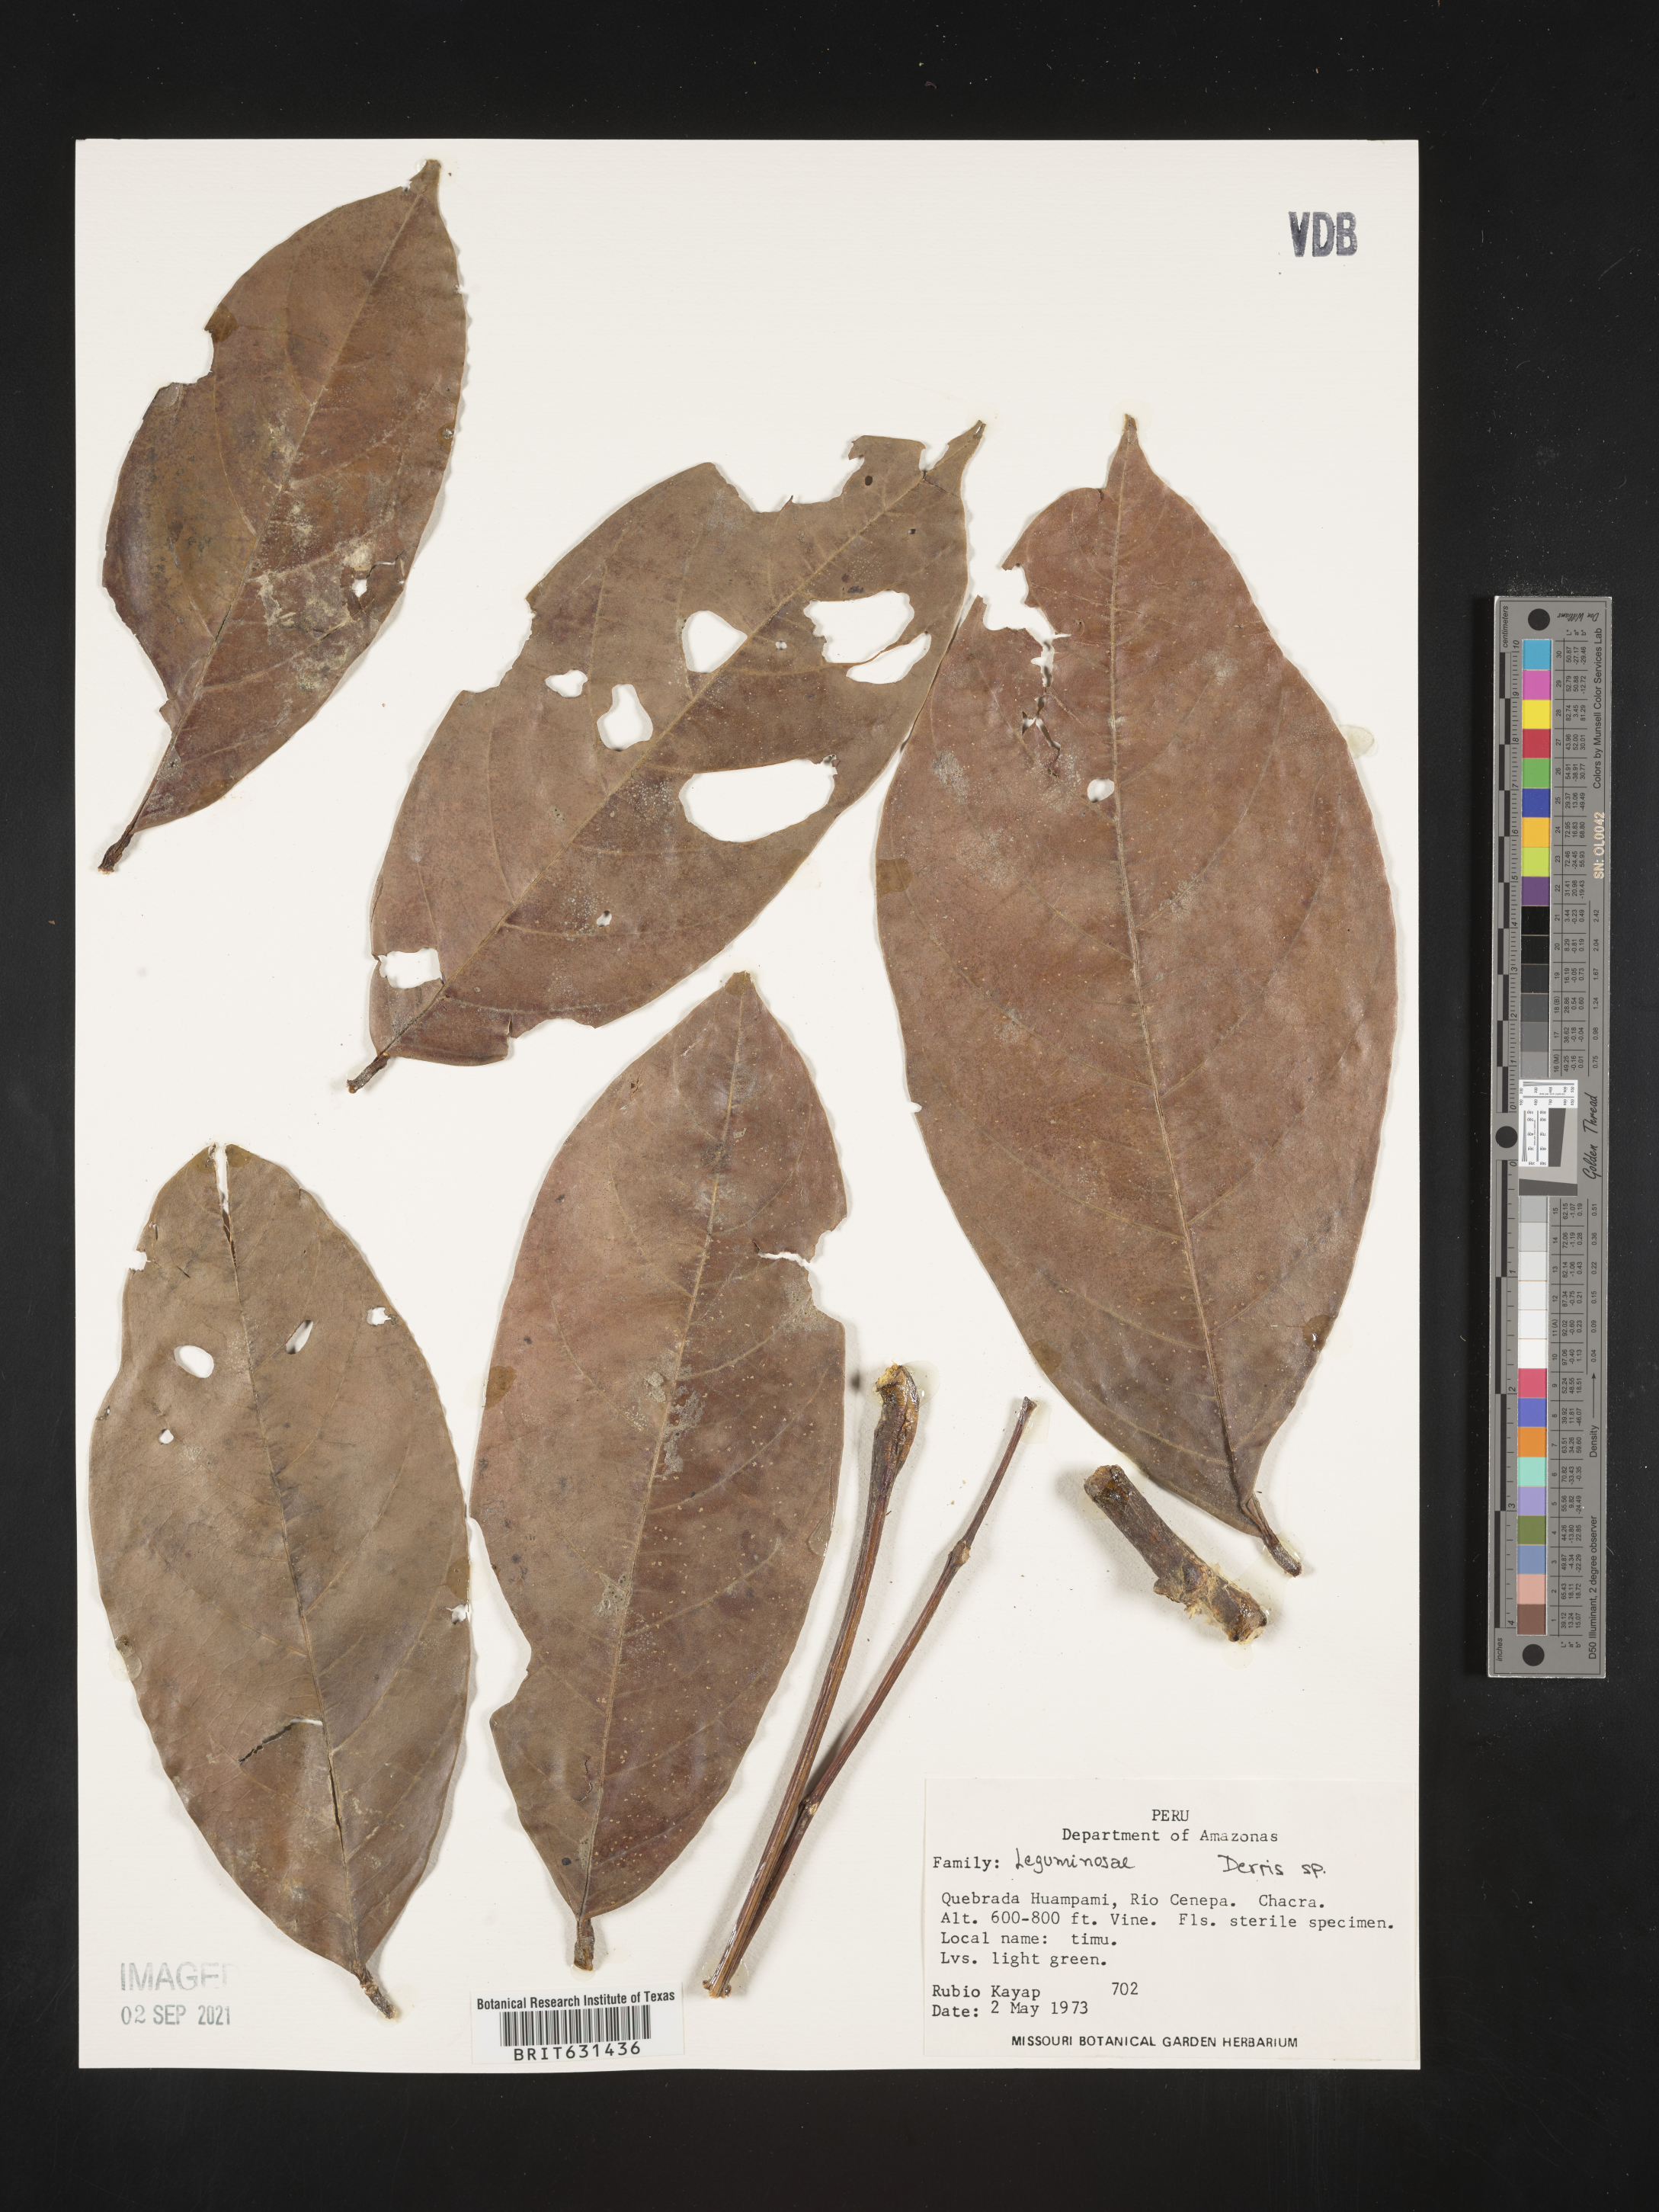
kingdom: Plantae
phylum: Tracheophyta
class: Magnoliopsida
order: Fabales
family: Fabaceae
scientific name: Fabaceae
